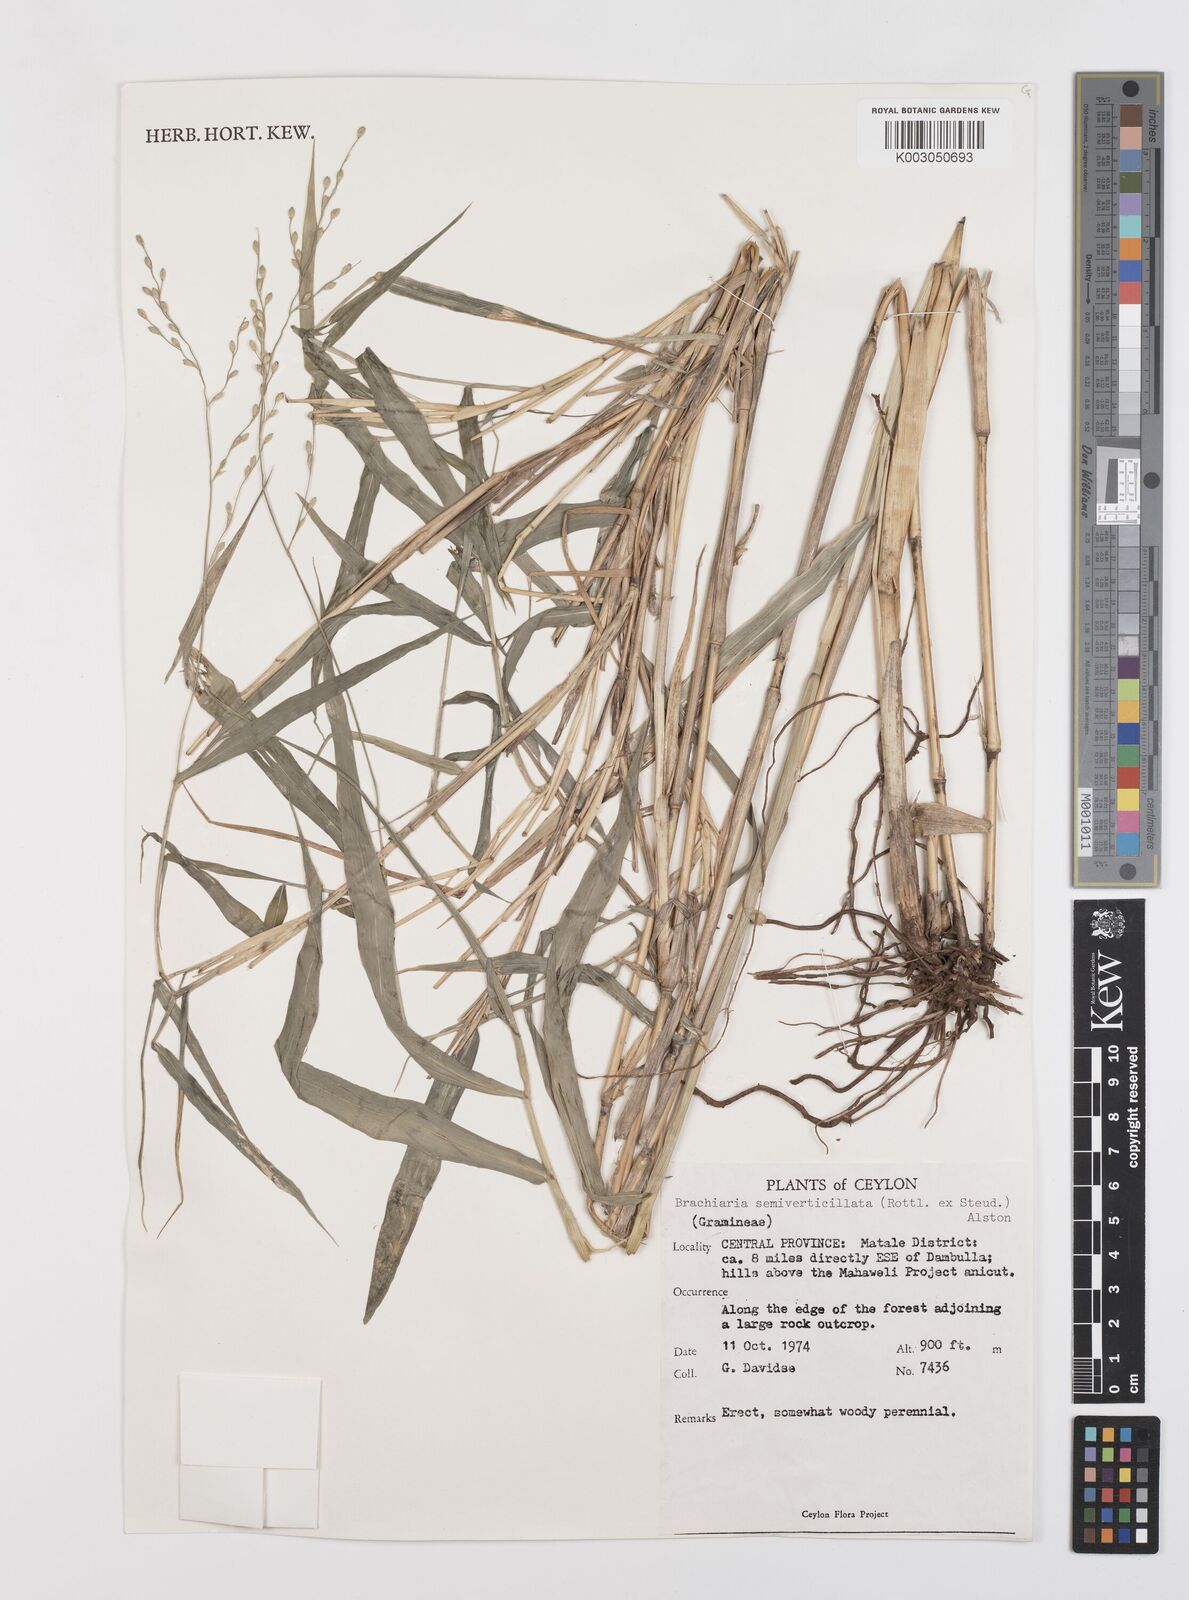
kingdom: Plantae
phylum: Tracheophyta
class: Liliopsida
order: Poales
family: Poaceae
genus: Urochloa
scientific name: Urochloa semiundulata
